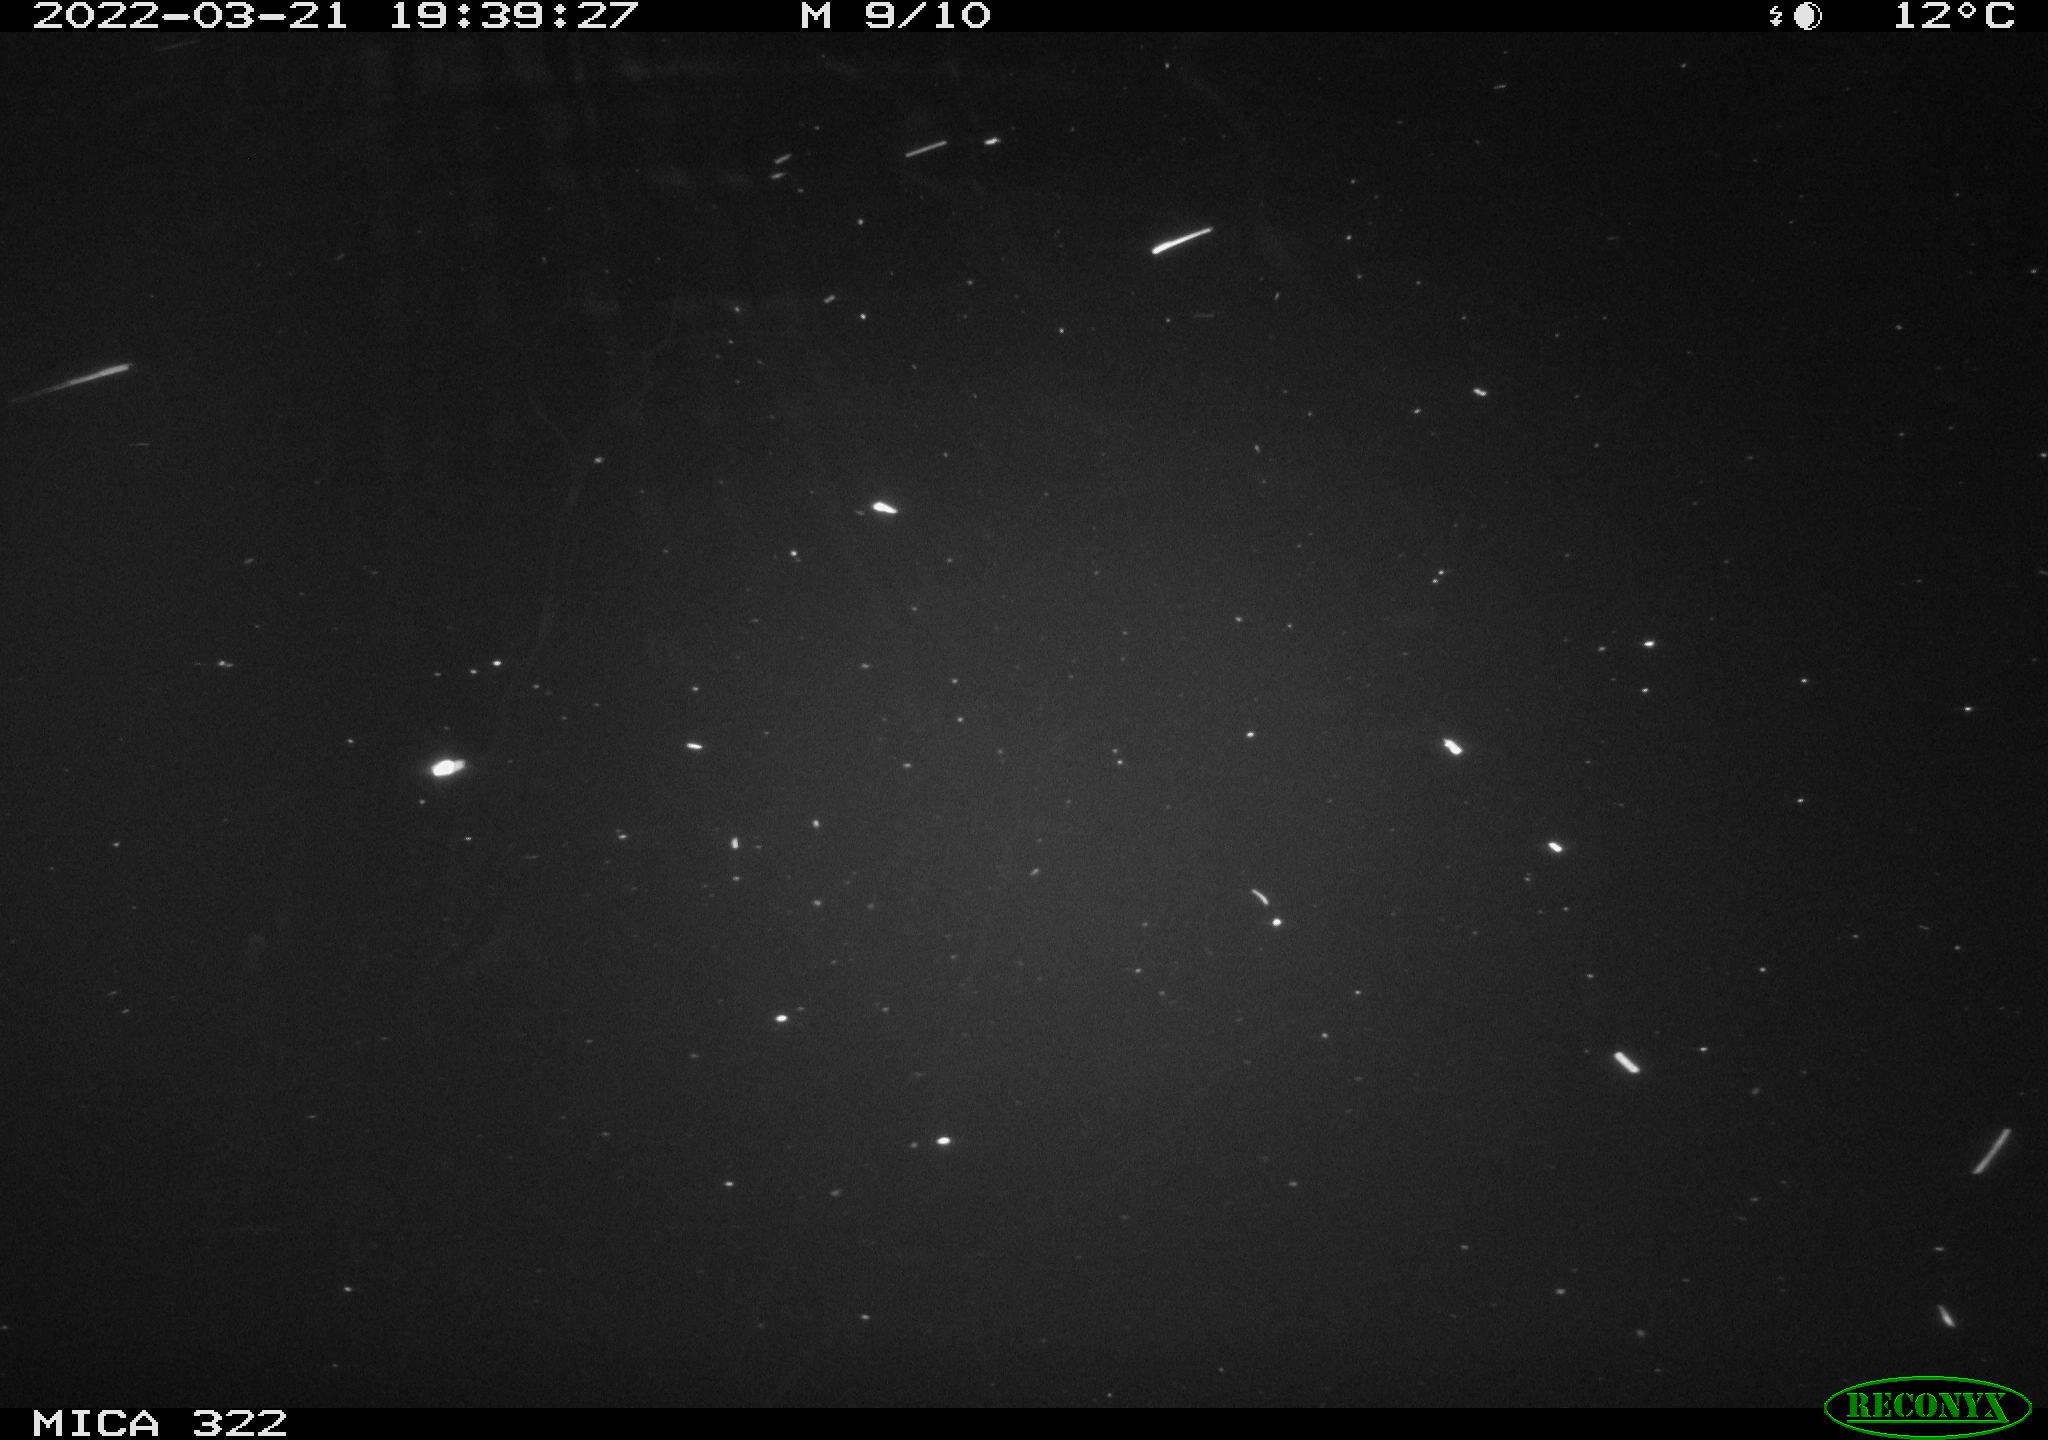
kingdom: Animalia
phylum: Chordata
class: Aves
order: Anseriformes
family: Anatidae
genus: Anas
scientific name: Anas platyrhynchos
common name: Mallard
